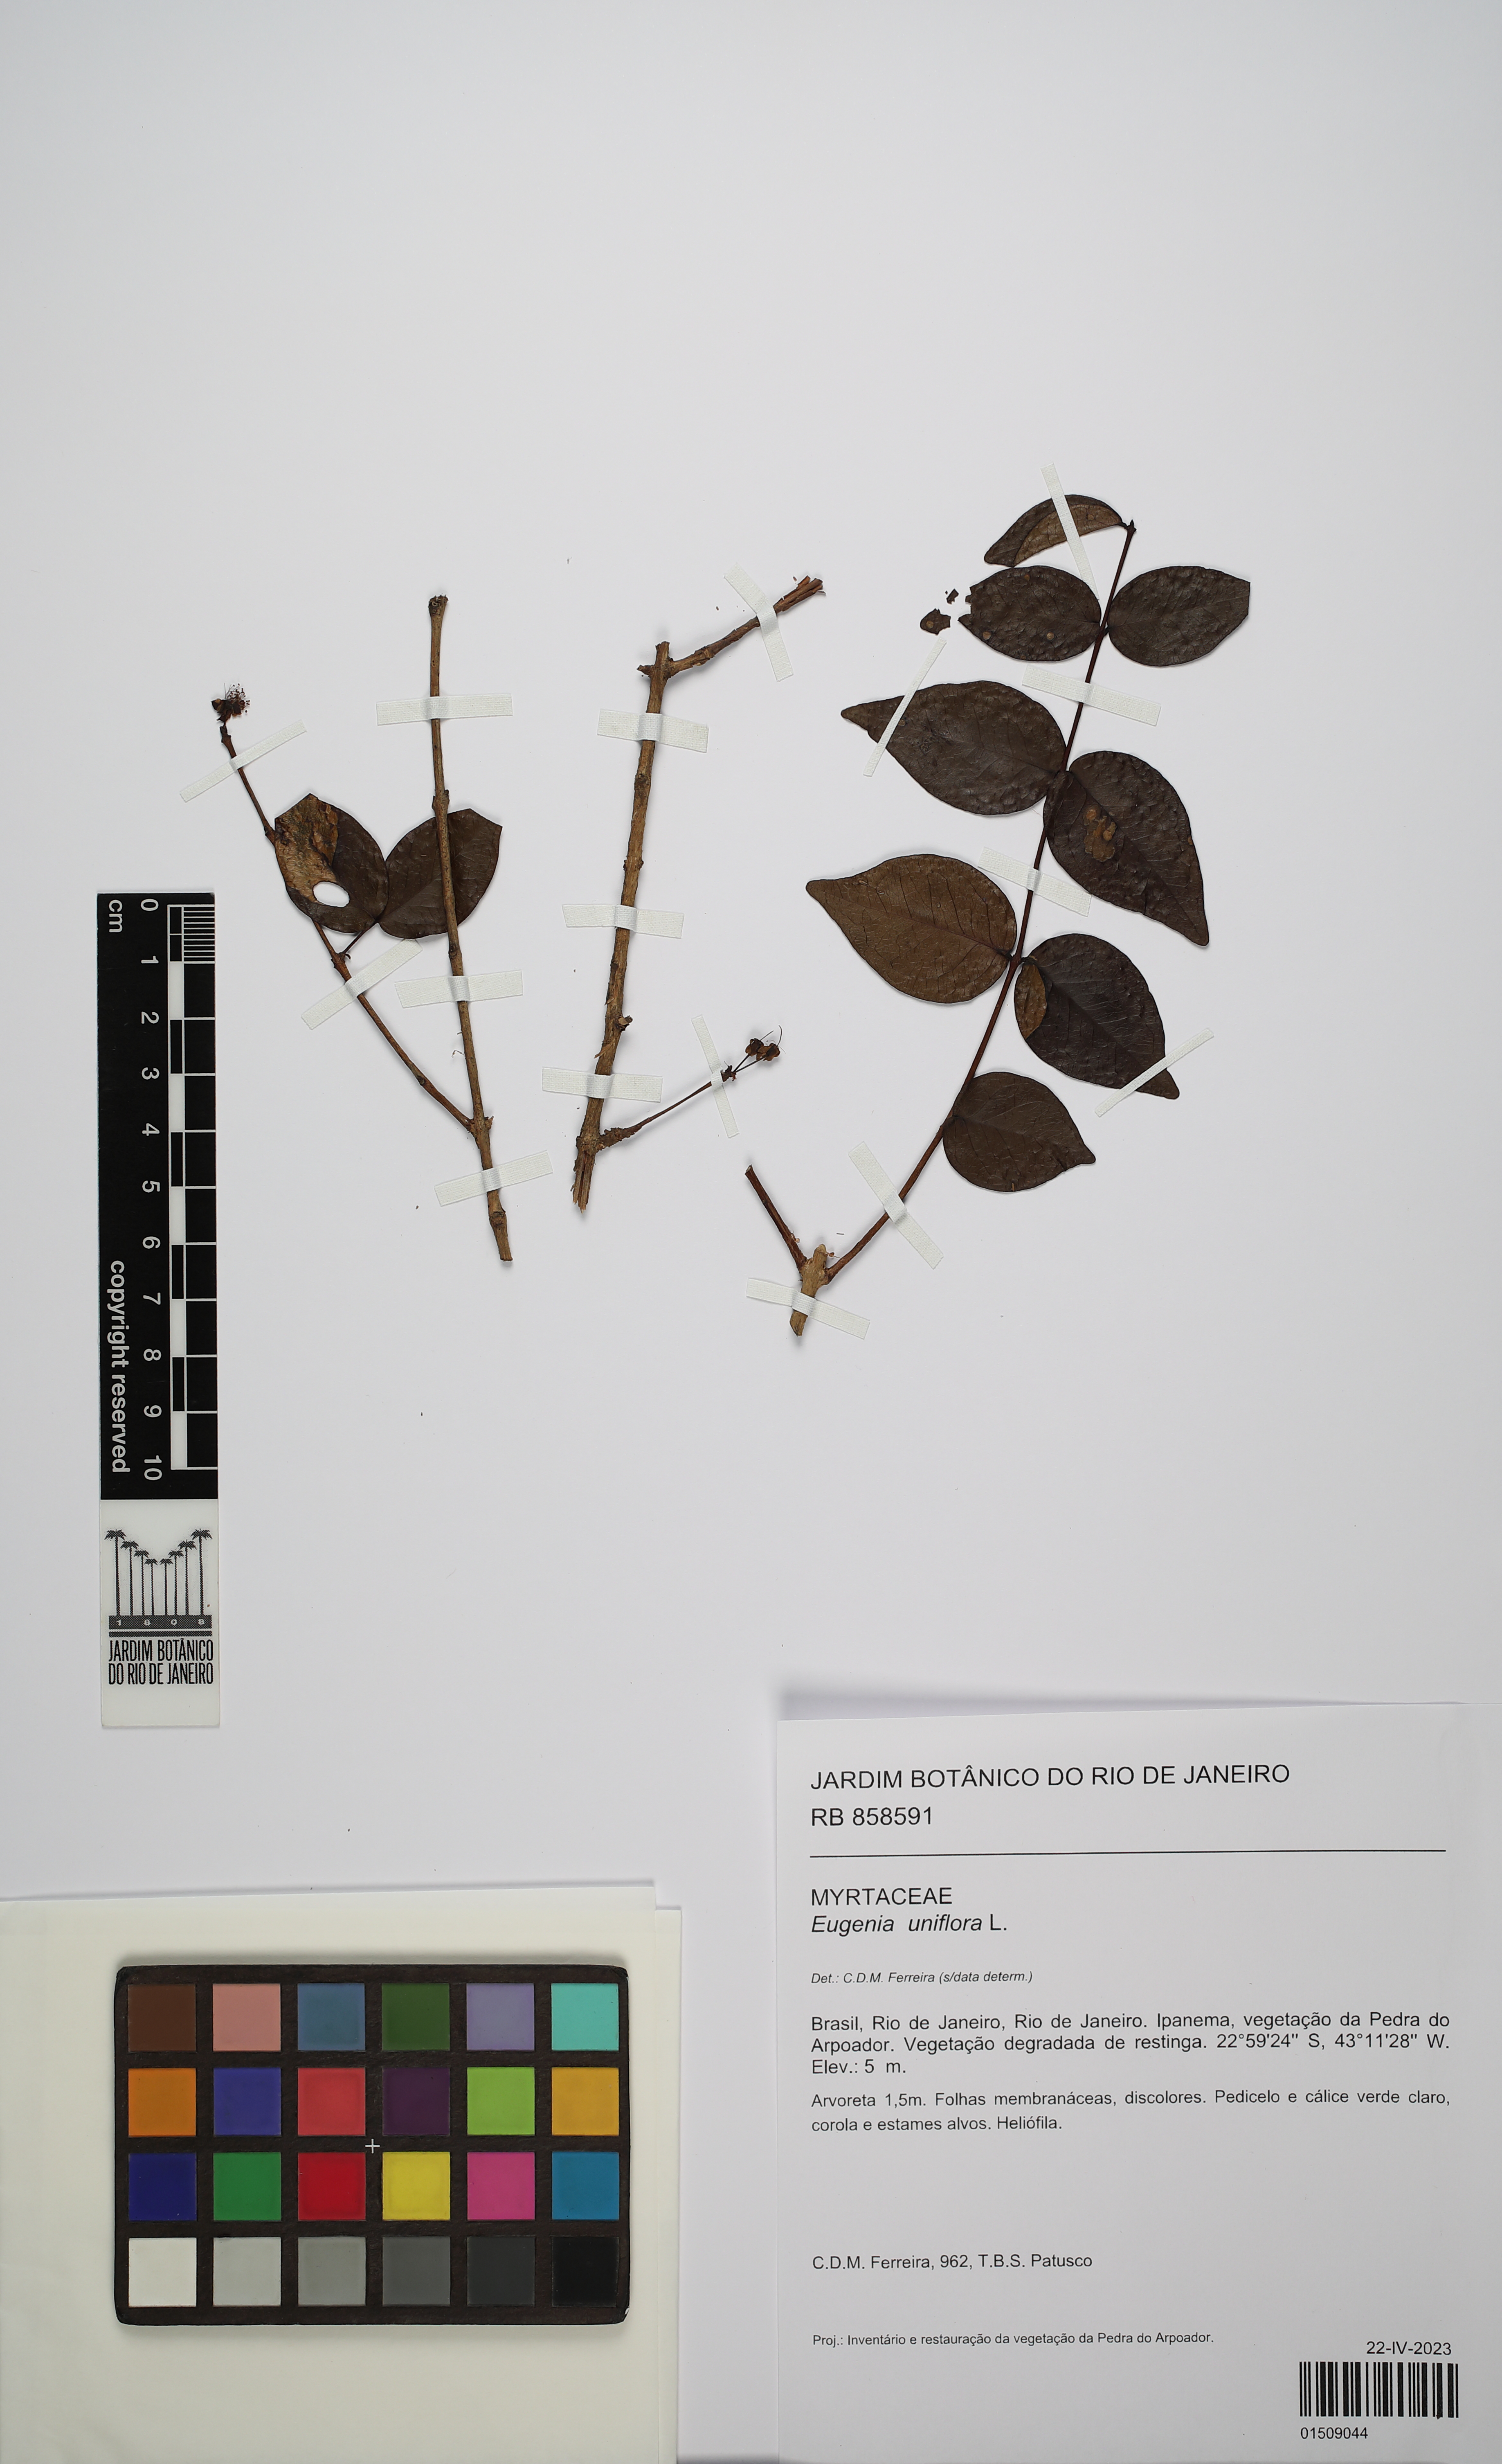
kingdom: Plantae
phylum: Tracheophyta
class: Magnoliopsida
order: Myrtales
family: Myrtaceae
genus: Eugenia
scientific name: Eugenia uniflora
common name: Surinam cherry
